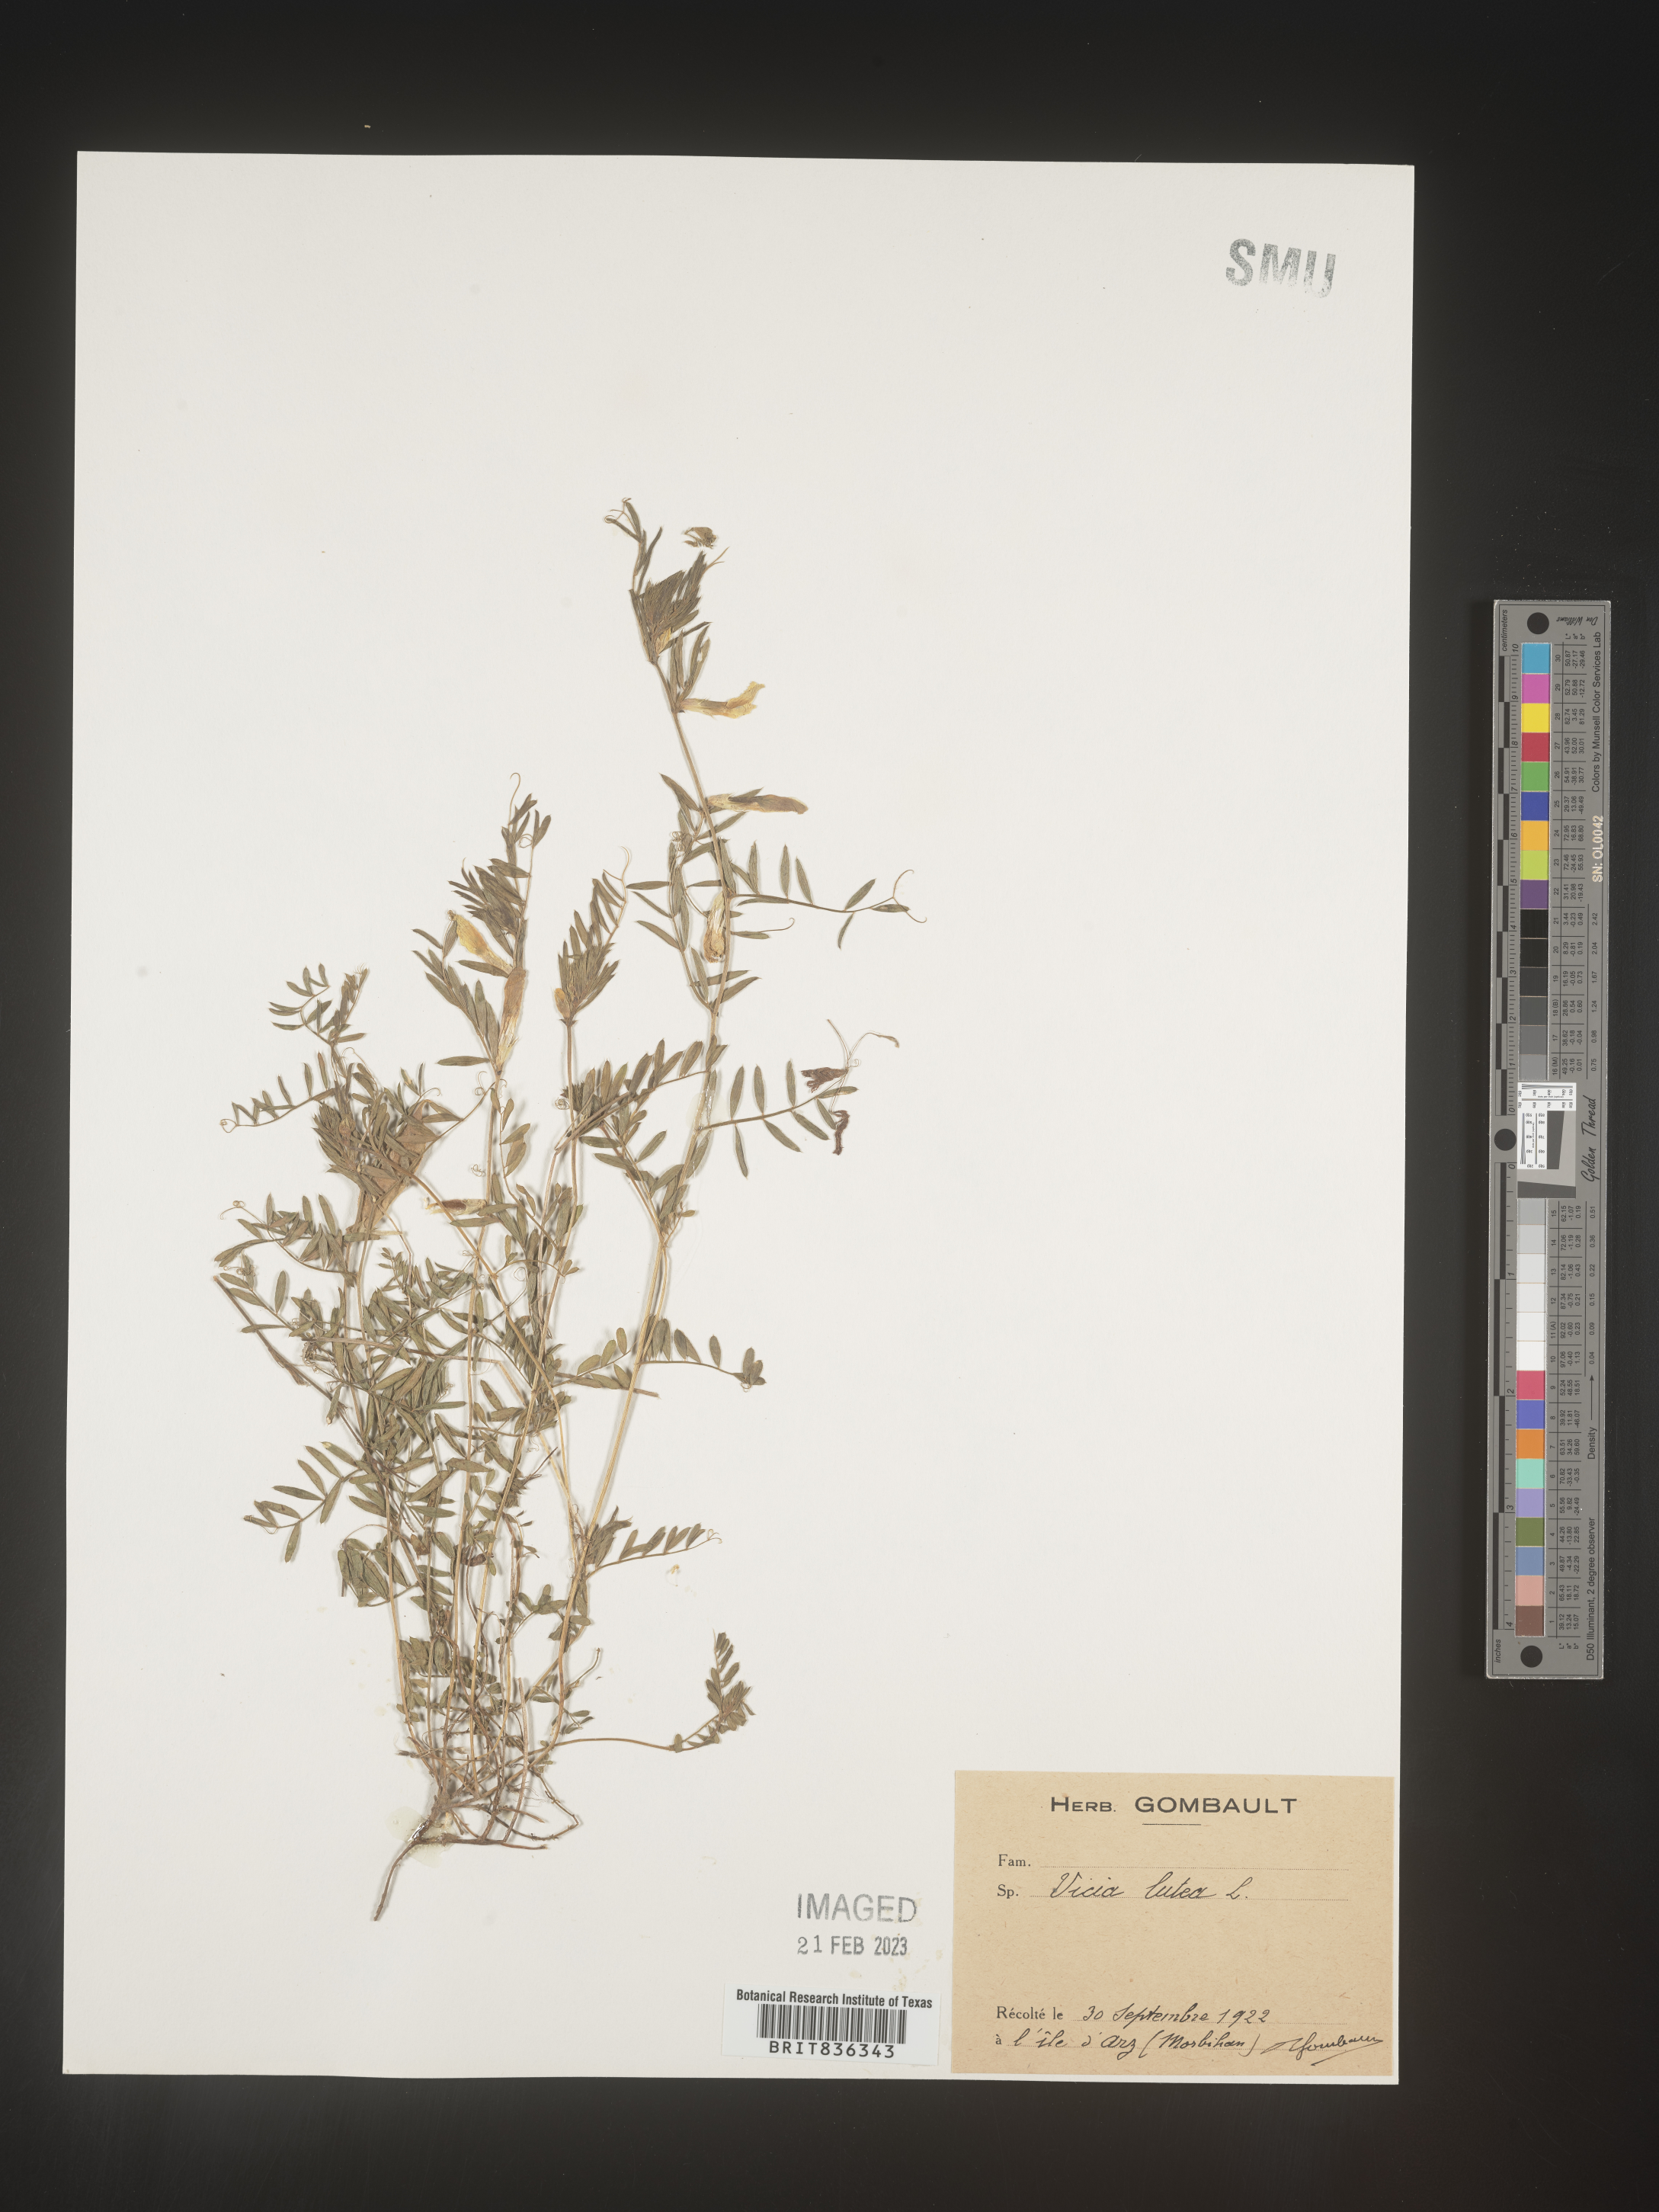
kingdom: Plantae
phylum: Tracheophyta
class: Magnoliopsida
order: Fabales
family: Fabaceae
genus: Vicia
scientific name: Vicia
